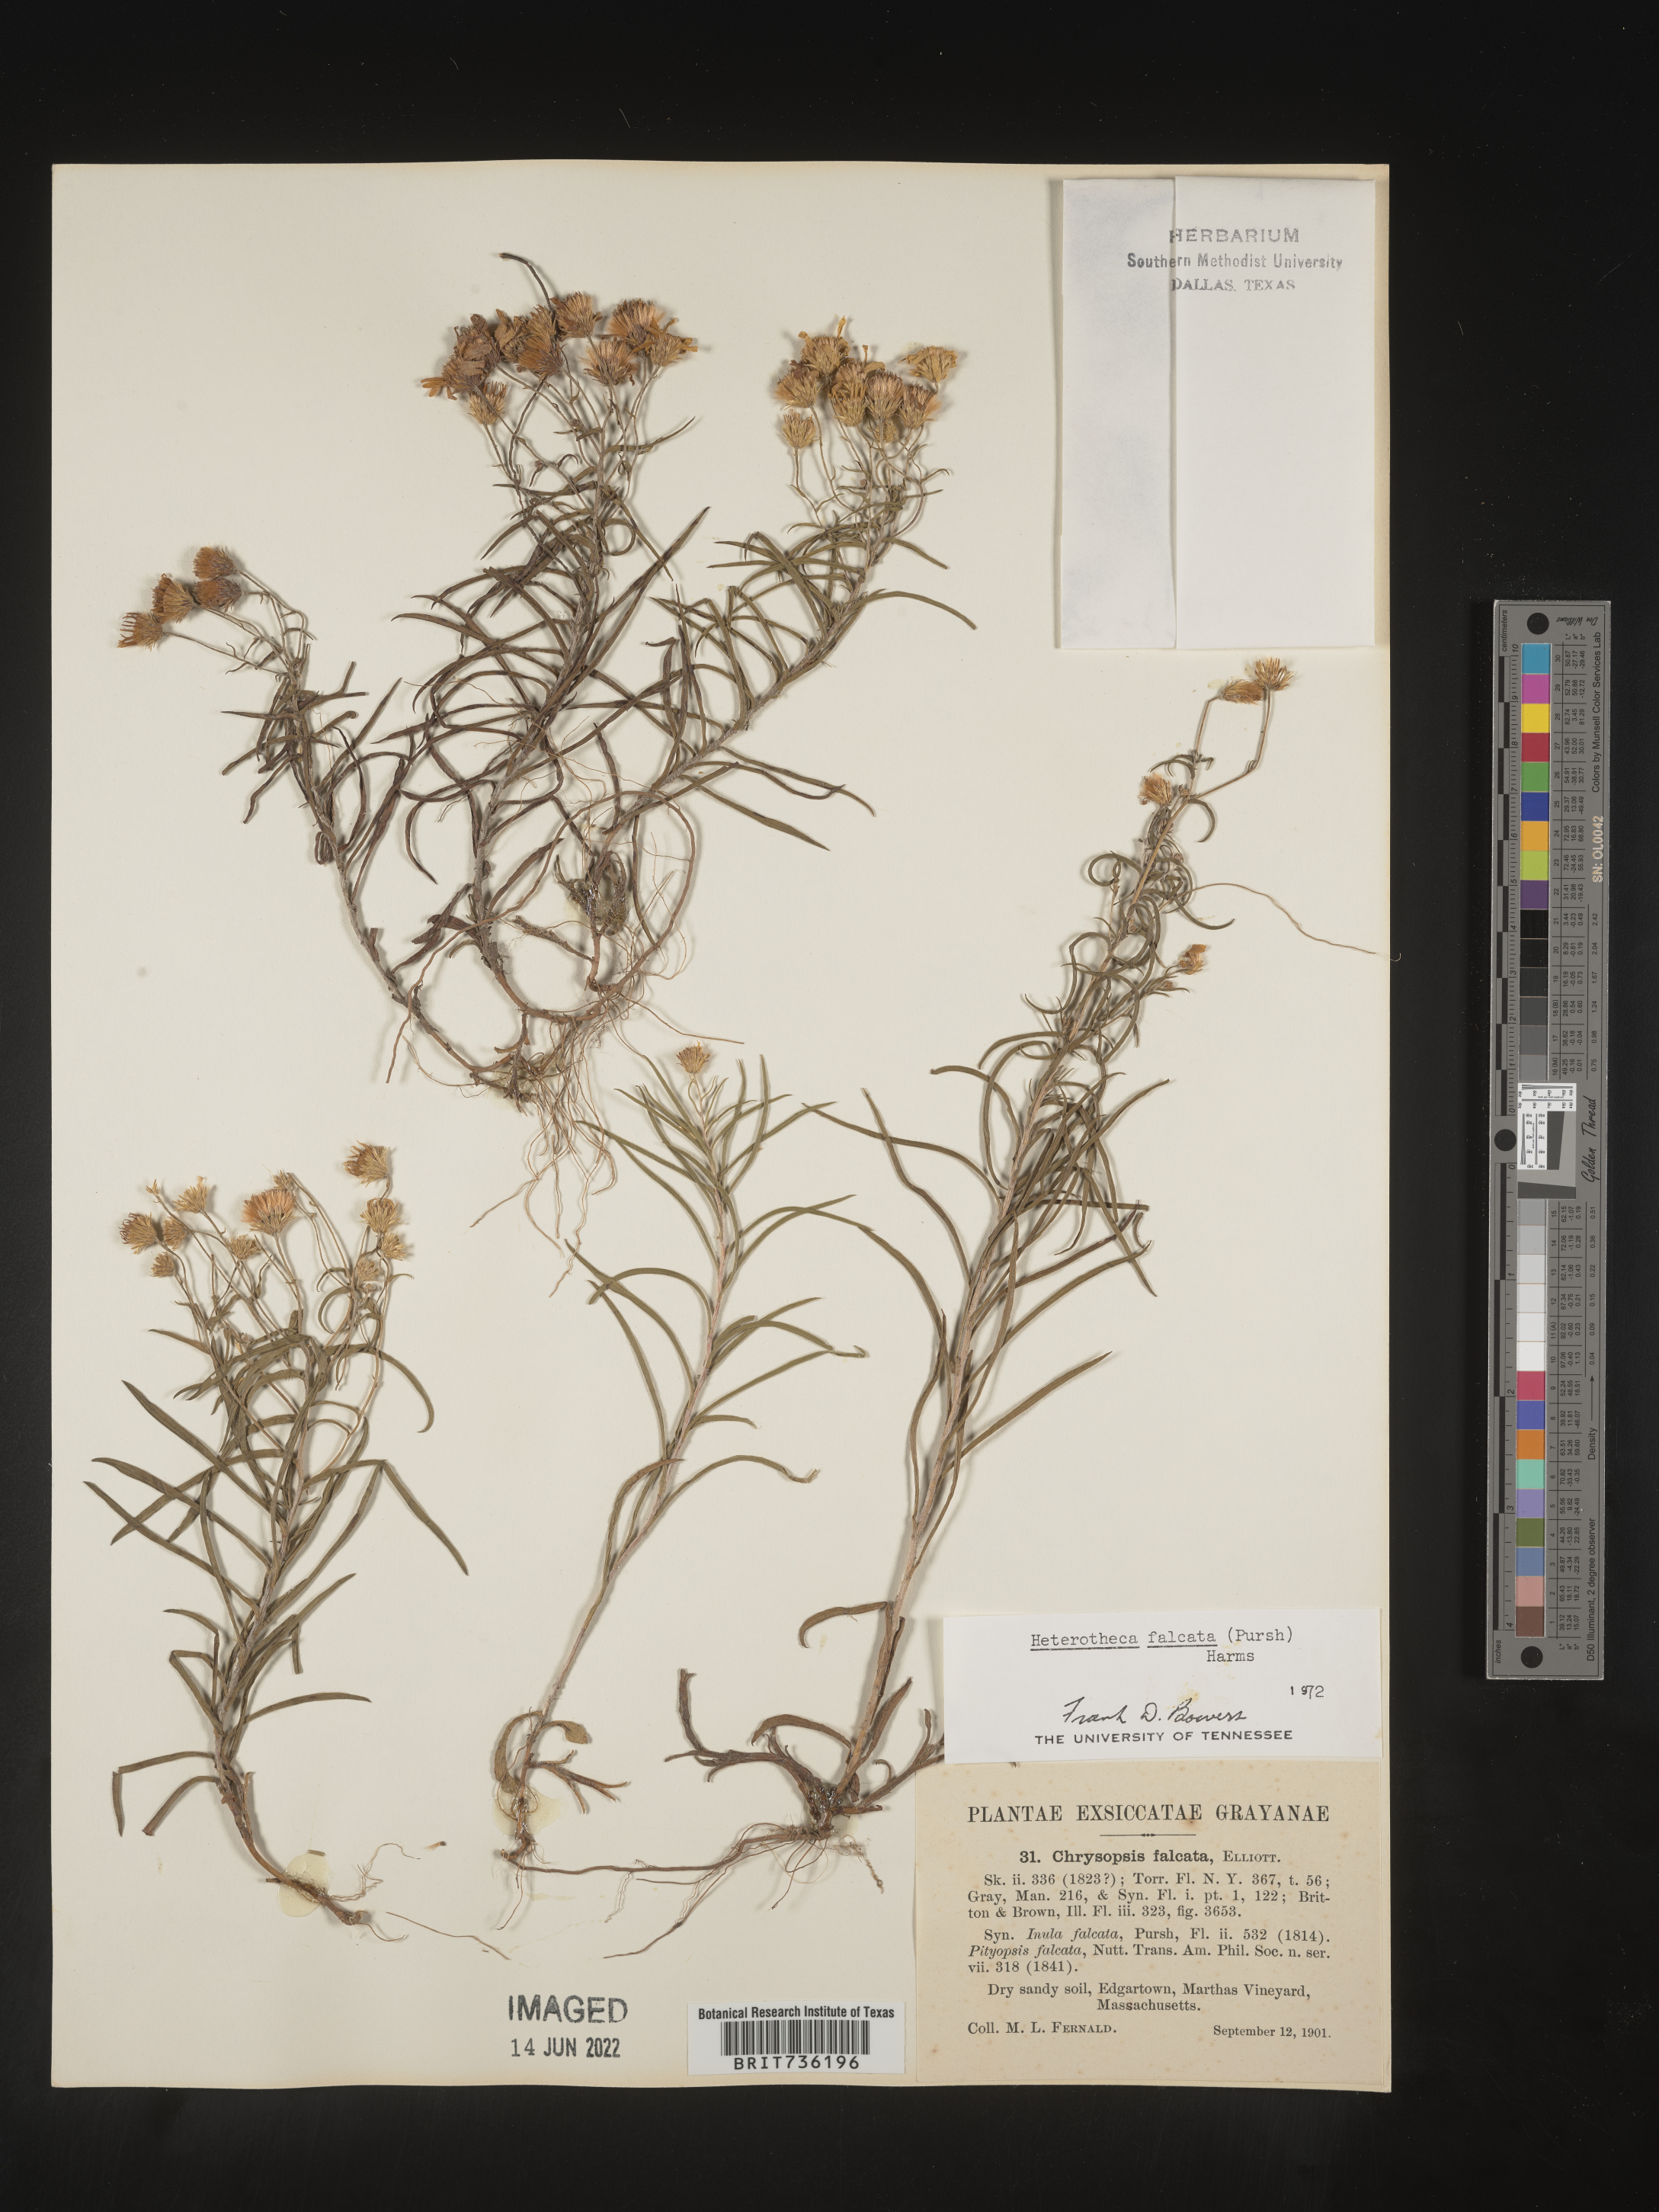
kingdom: Plantae
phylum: Tracheophyta
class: Magnoliopsida
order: Asterales
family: Asteraceae
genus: Pityopsis
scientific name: Pityopsis falcata
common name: Sickle-leaved goldenaster
